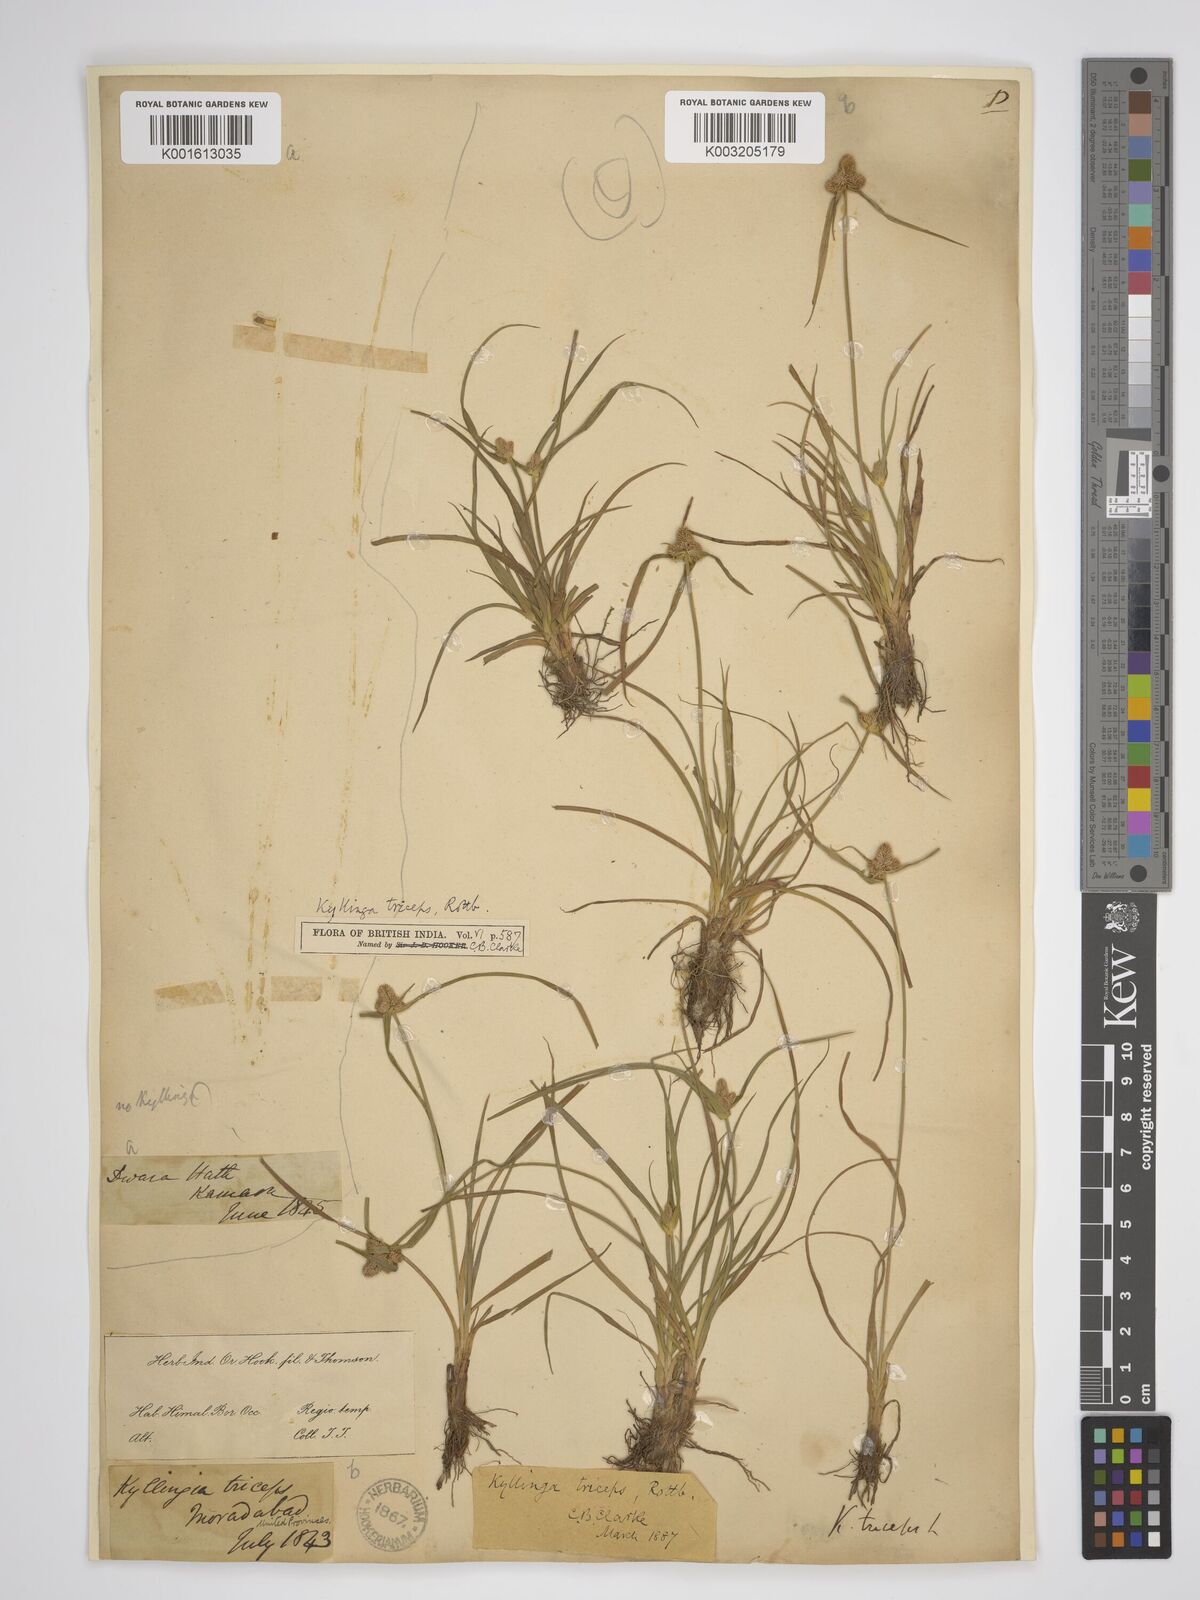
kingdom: Plantae
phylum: Tracheophyta
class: Liliopsida
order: Poales
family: Cyperaceae
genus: Cyperus
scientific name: Cyperus dubius
